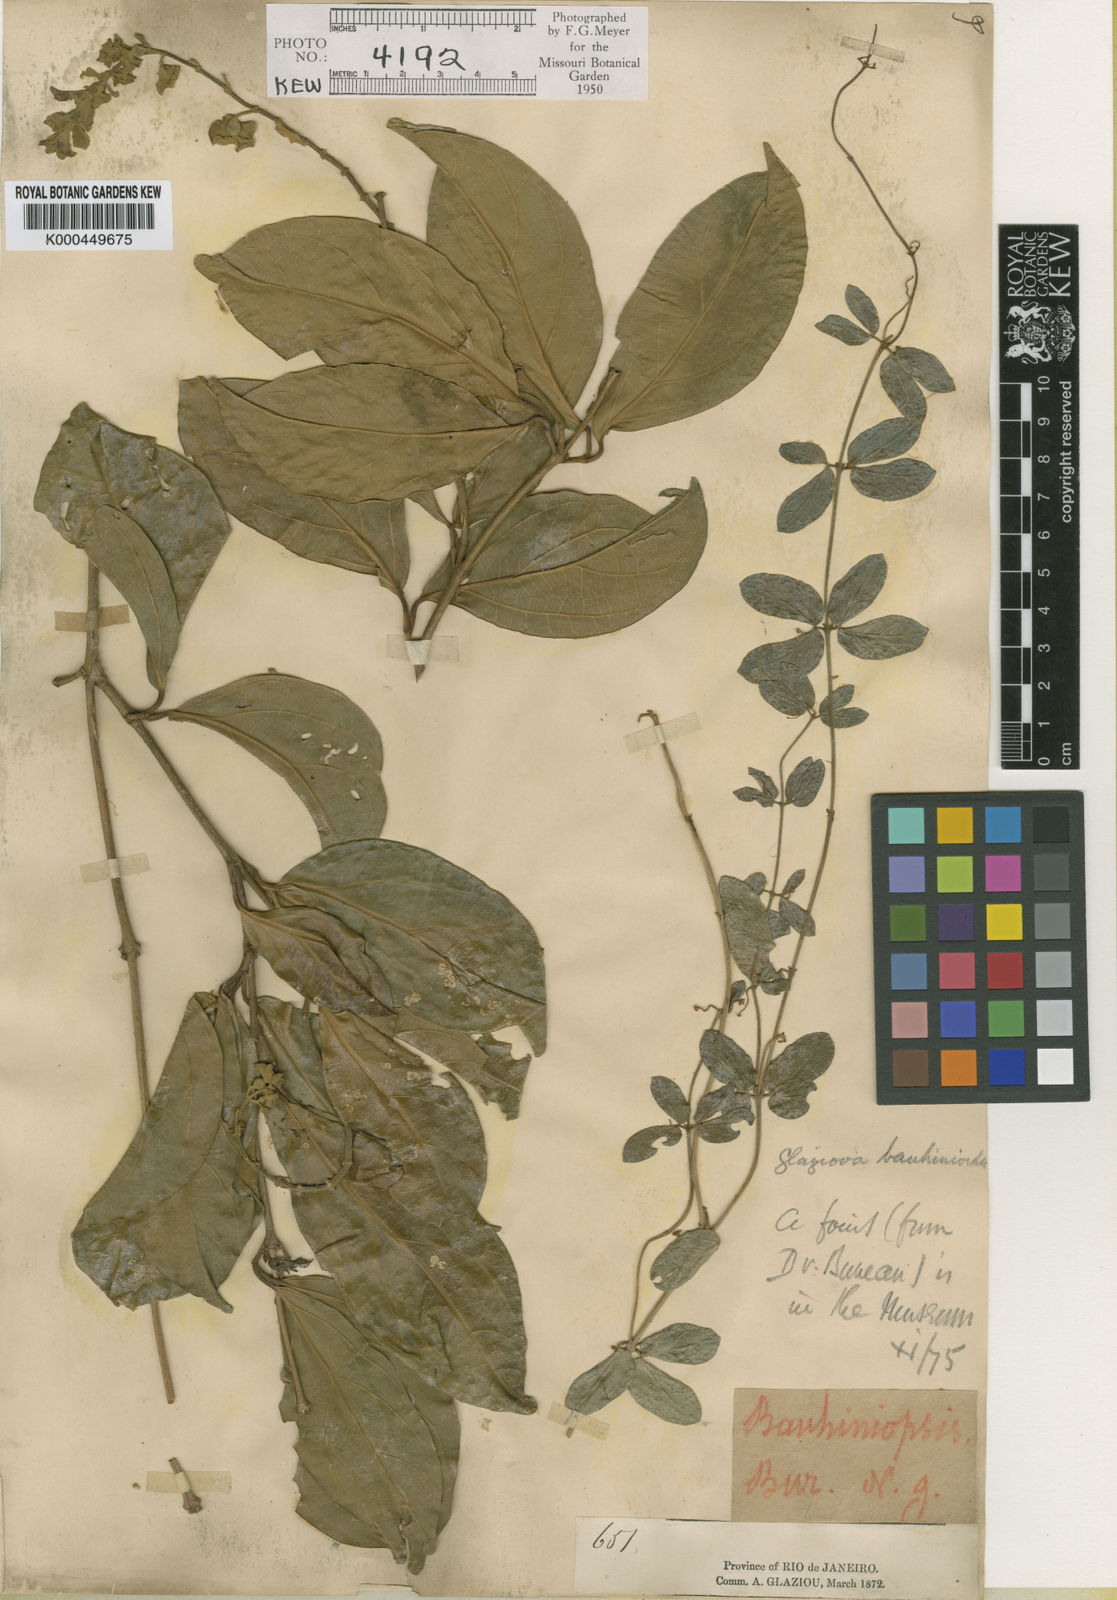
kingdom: Plantae
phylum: Tracheophyta
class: Magnoliopsida
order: Lamiales
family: Bignoniaceae
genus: Amphilophium
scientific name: Amphilophium bauhinioides
